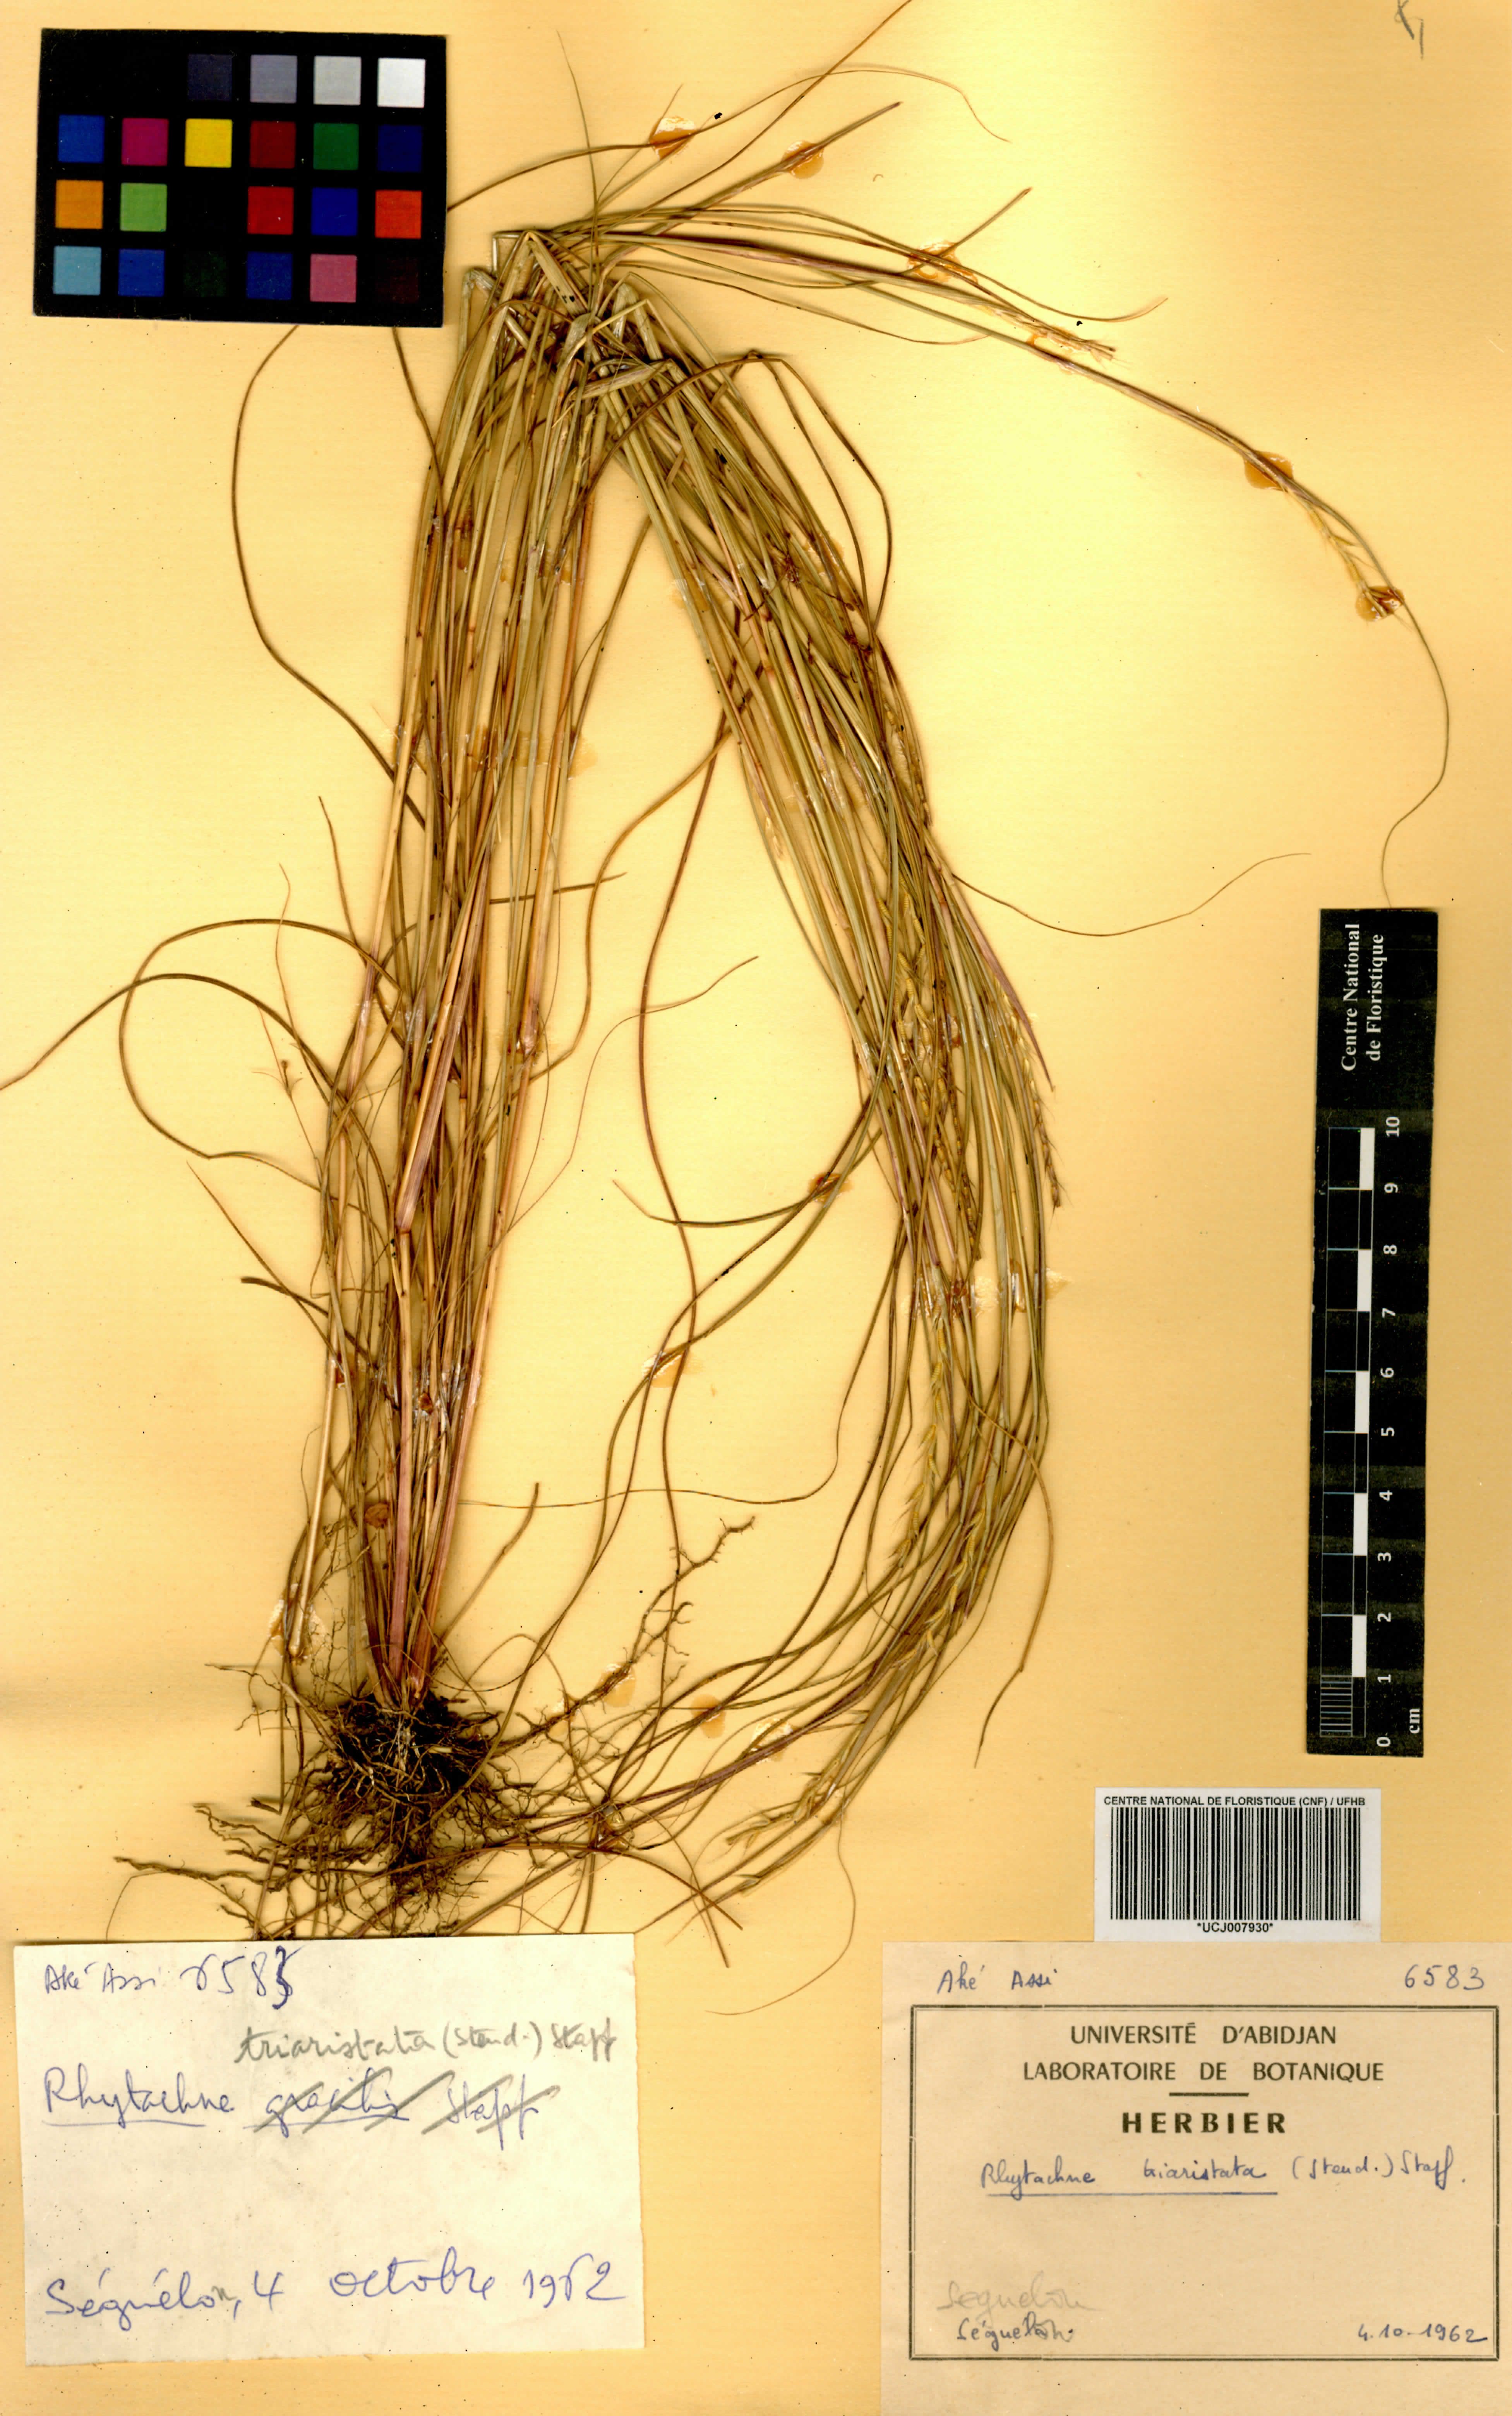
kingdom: Plantae
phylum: Tracheophyta
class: Liliopsida
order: Poales
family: Poaceae
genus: Rhytachne
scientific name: Rhytachne triaristata
